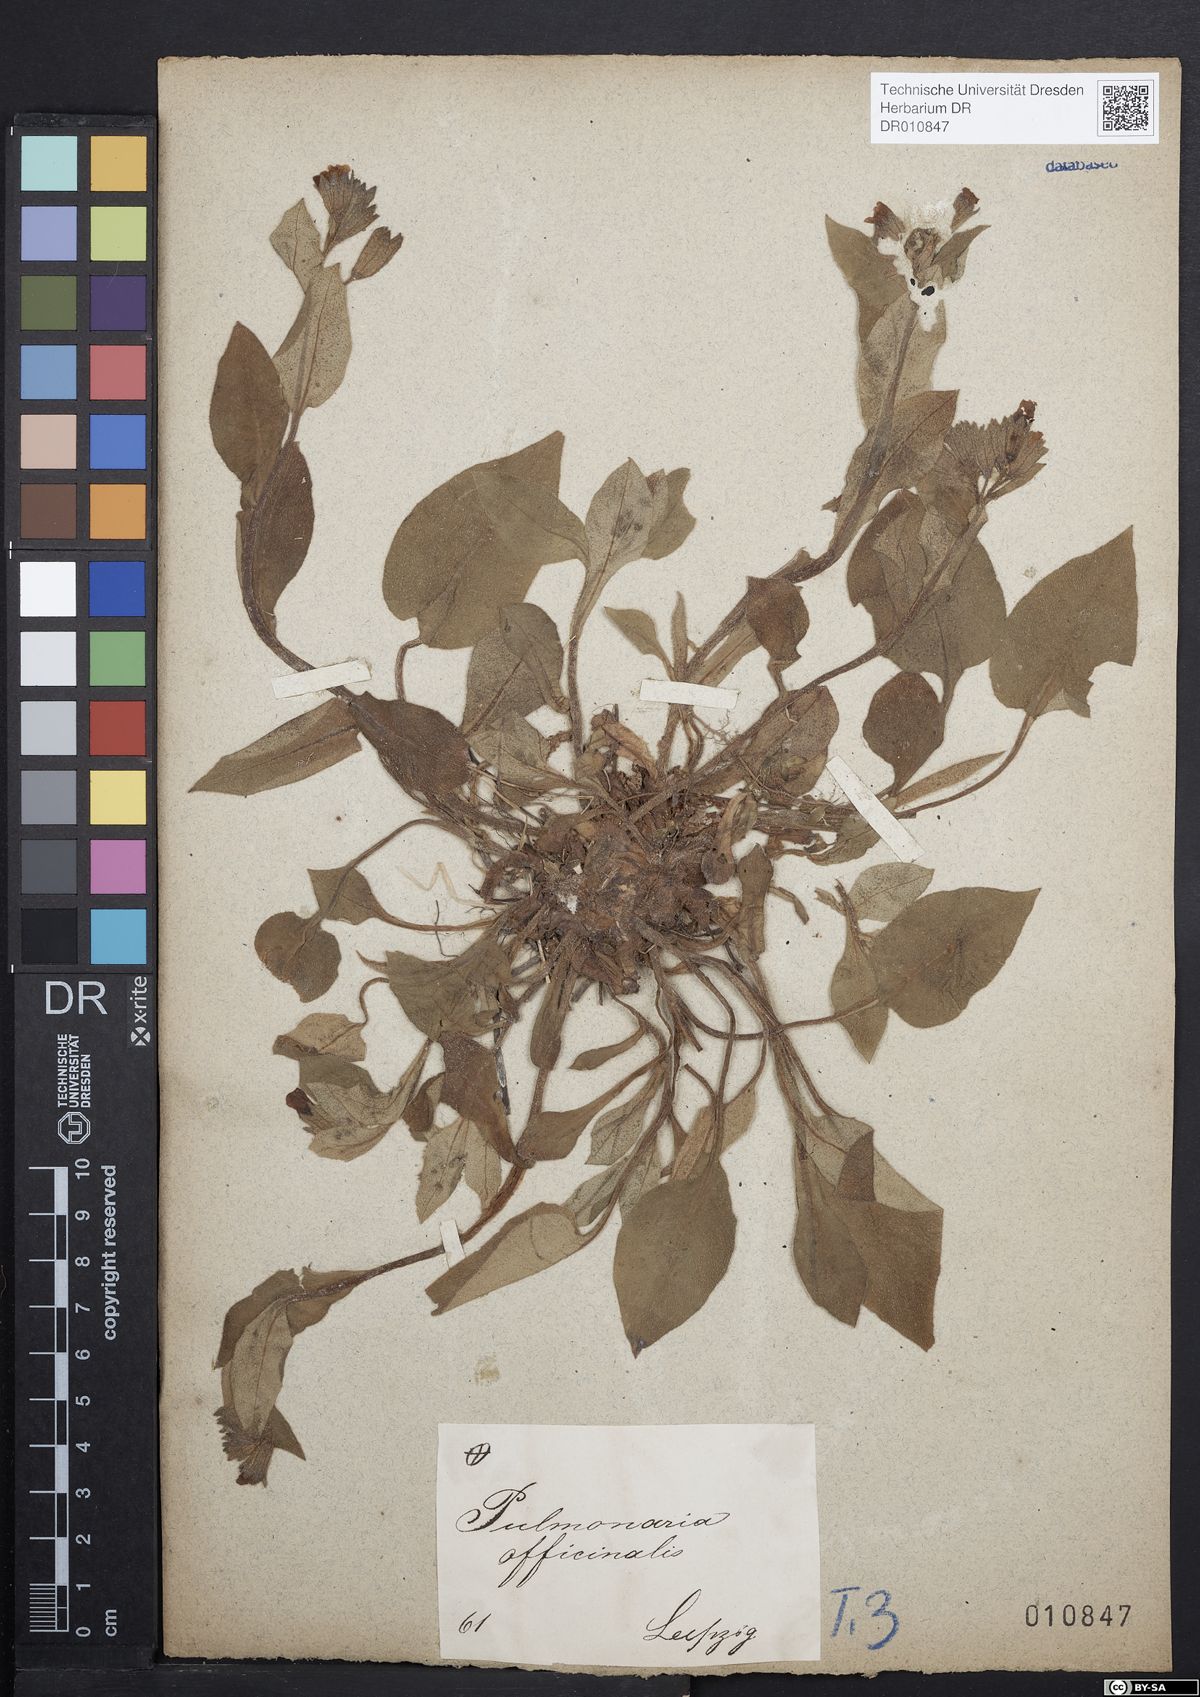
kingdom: Plantae
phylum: Tracheophyta
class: Magnoliopsida
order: Boraginales
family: Boraginaceae
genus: Pulmonaria
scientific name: Pulmonaria obscura
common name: Suffolk lungwort
